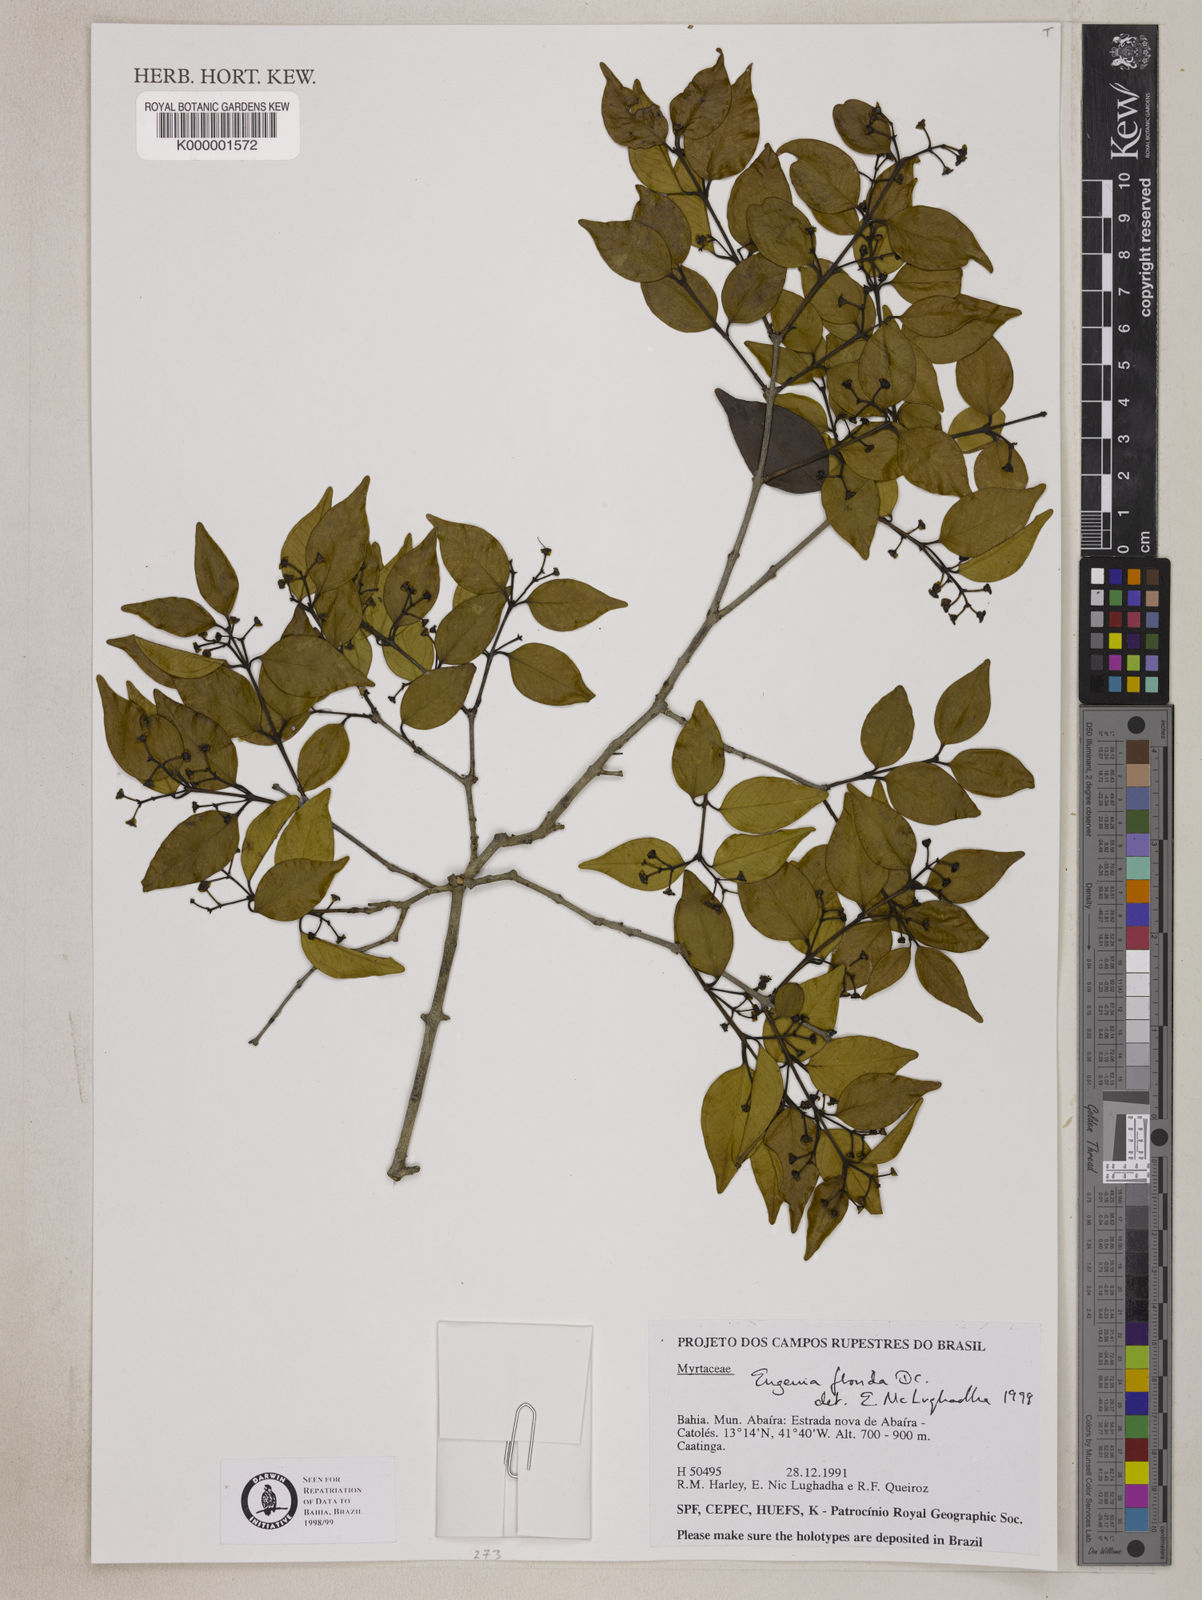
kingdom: Plantae
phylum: Tracheophyta
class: Magnoliopsida
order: Myrtales
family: Myrtaceae
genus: Eugenia
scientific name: Eugenia florida
